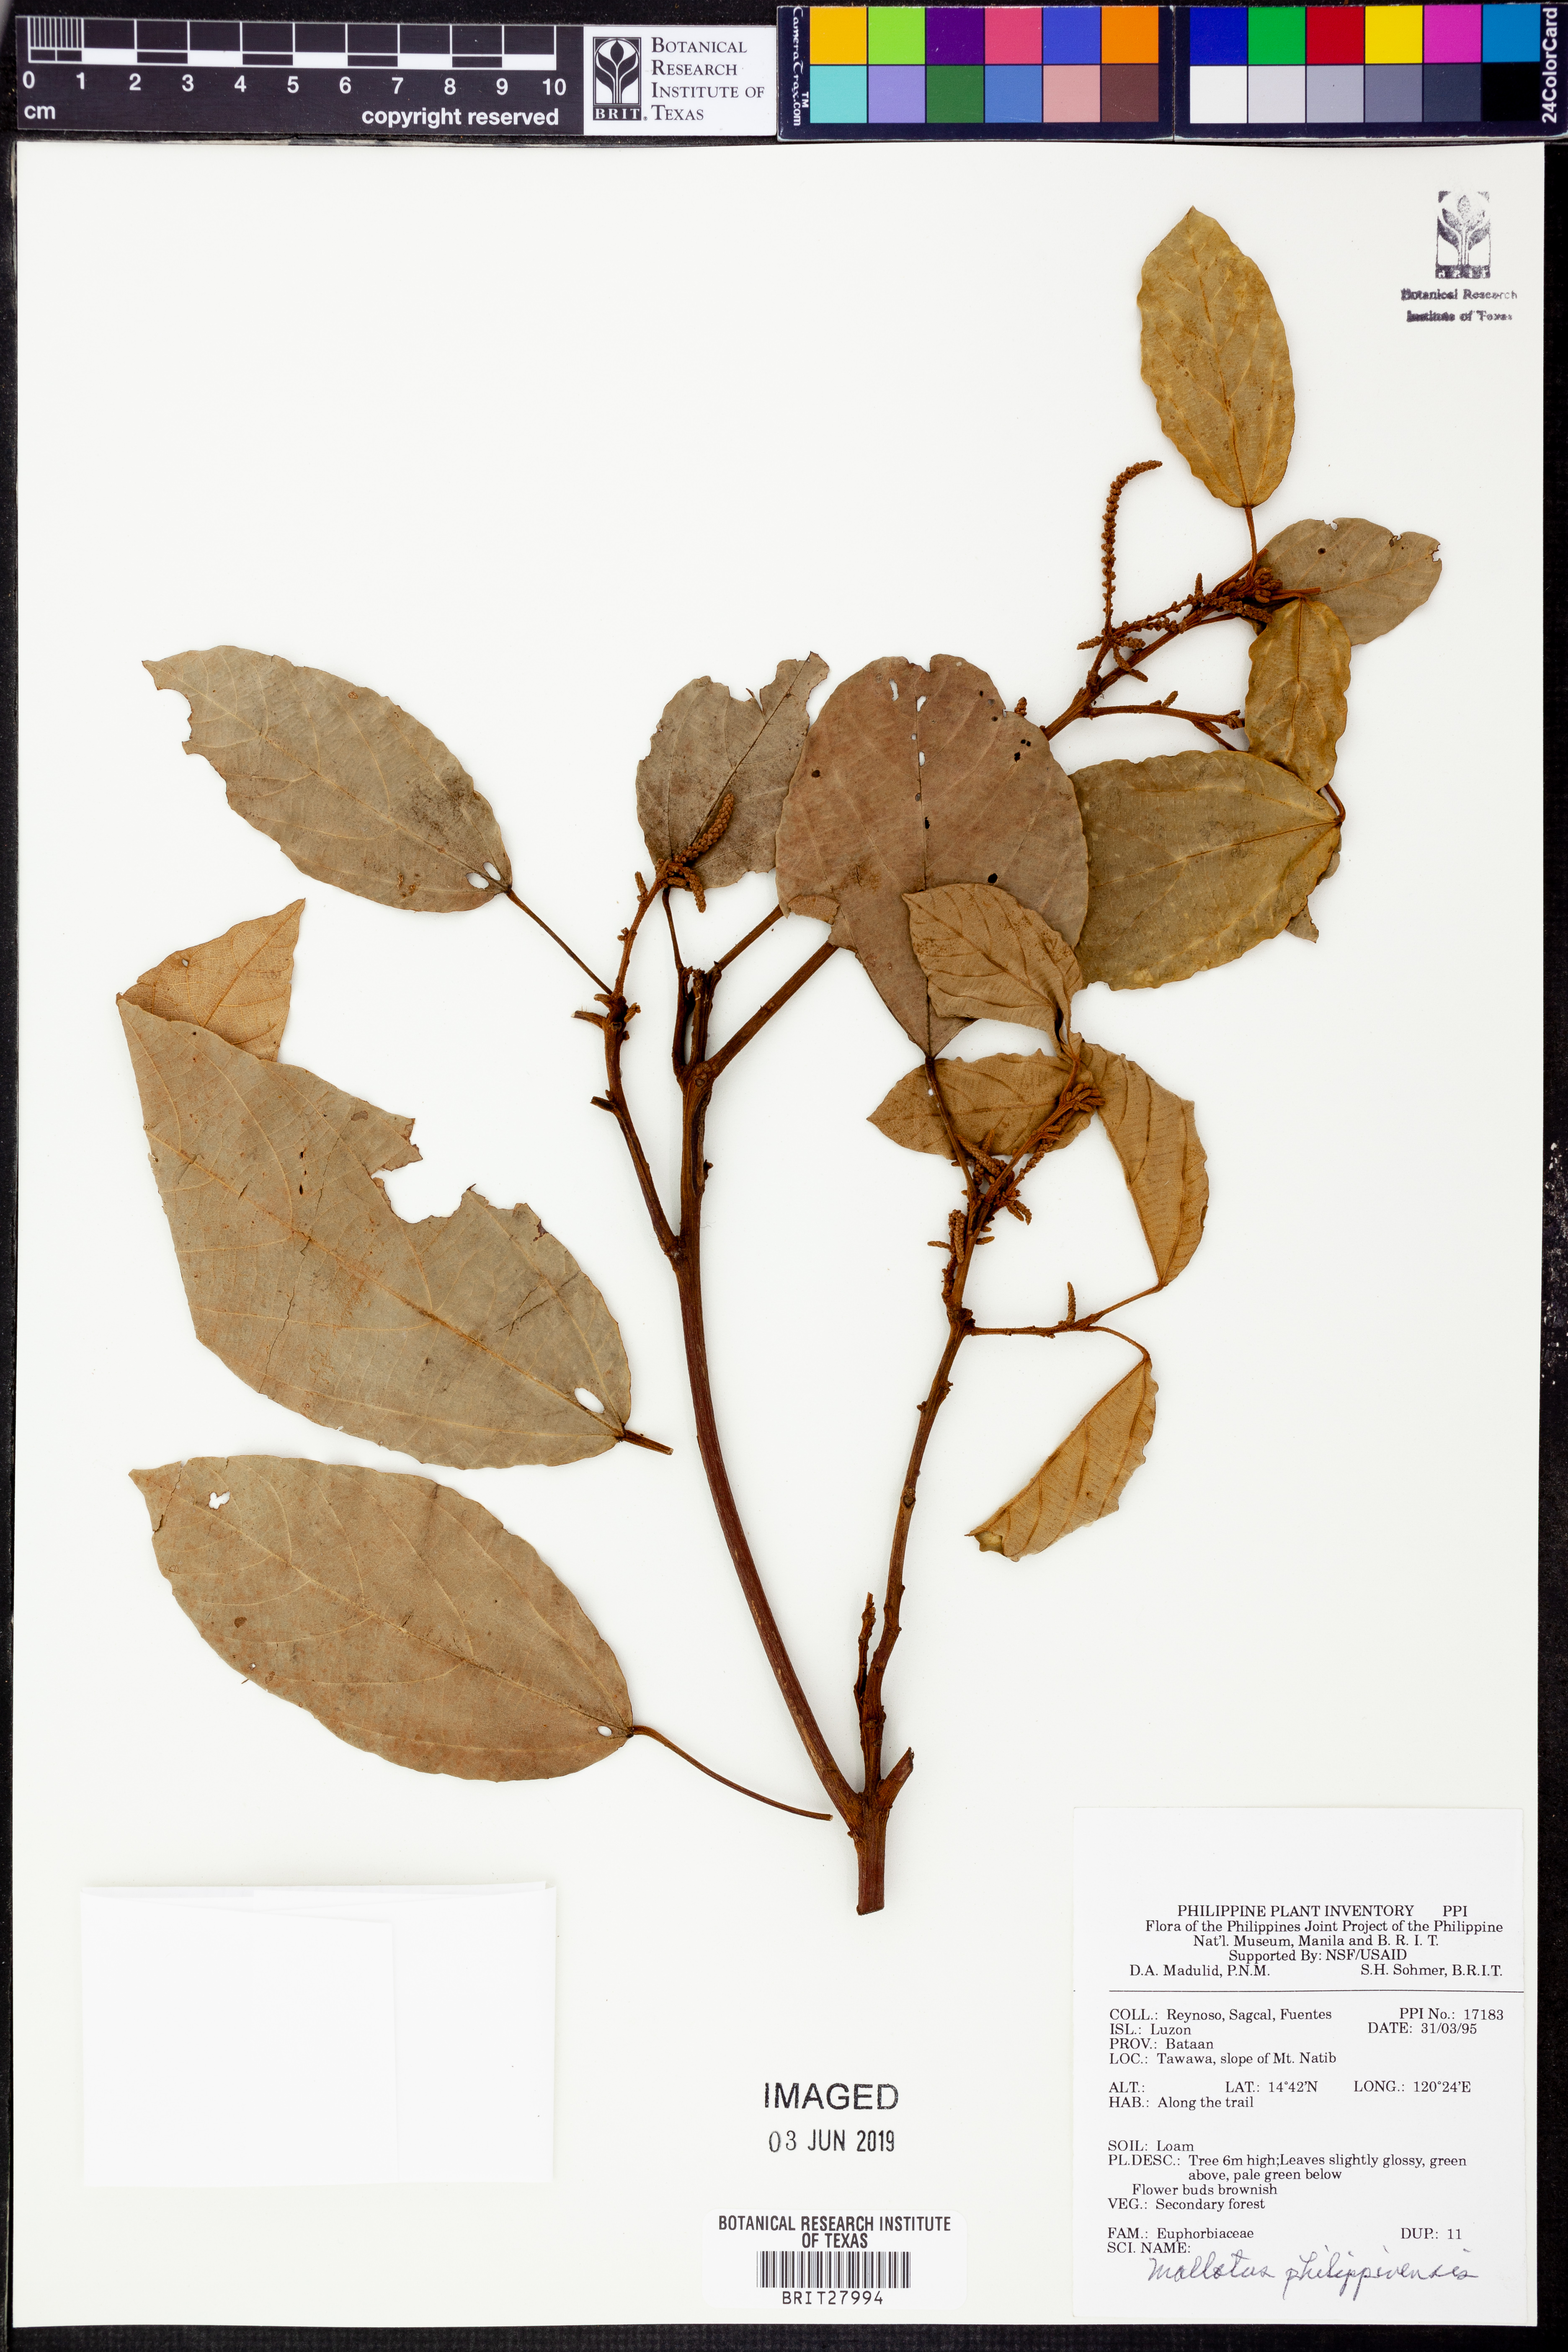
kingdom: Plantae
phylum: Tracheophyta
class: Magnoliopsida
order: Malpighiales
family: Euphorbiaceae
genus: Mallotus
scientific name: Mallotus philippensis
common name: Kamala tree
